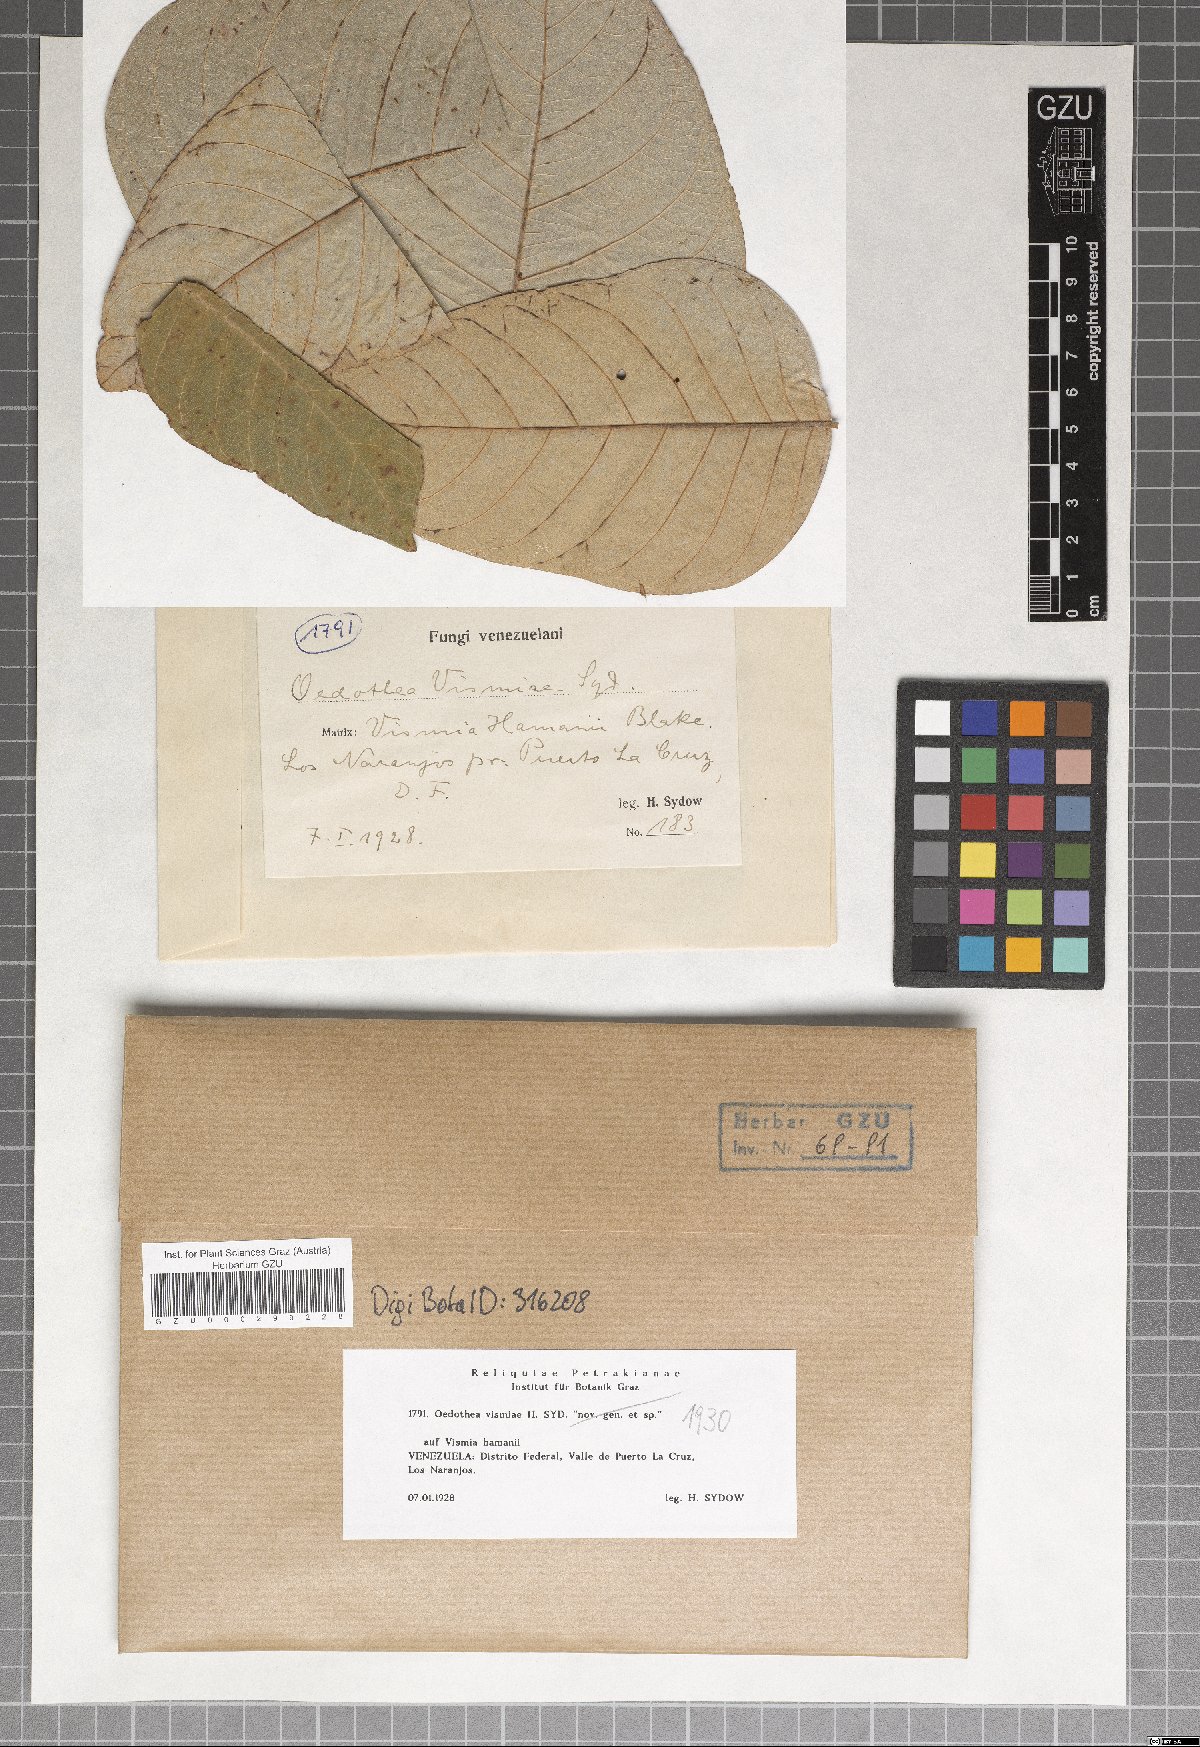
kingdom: Fungi
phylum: Ascomycota
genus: Oedothea
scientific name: Oedothea vismiae
